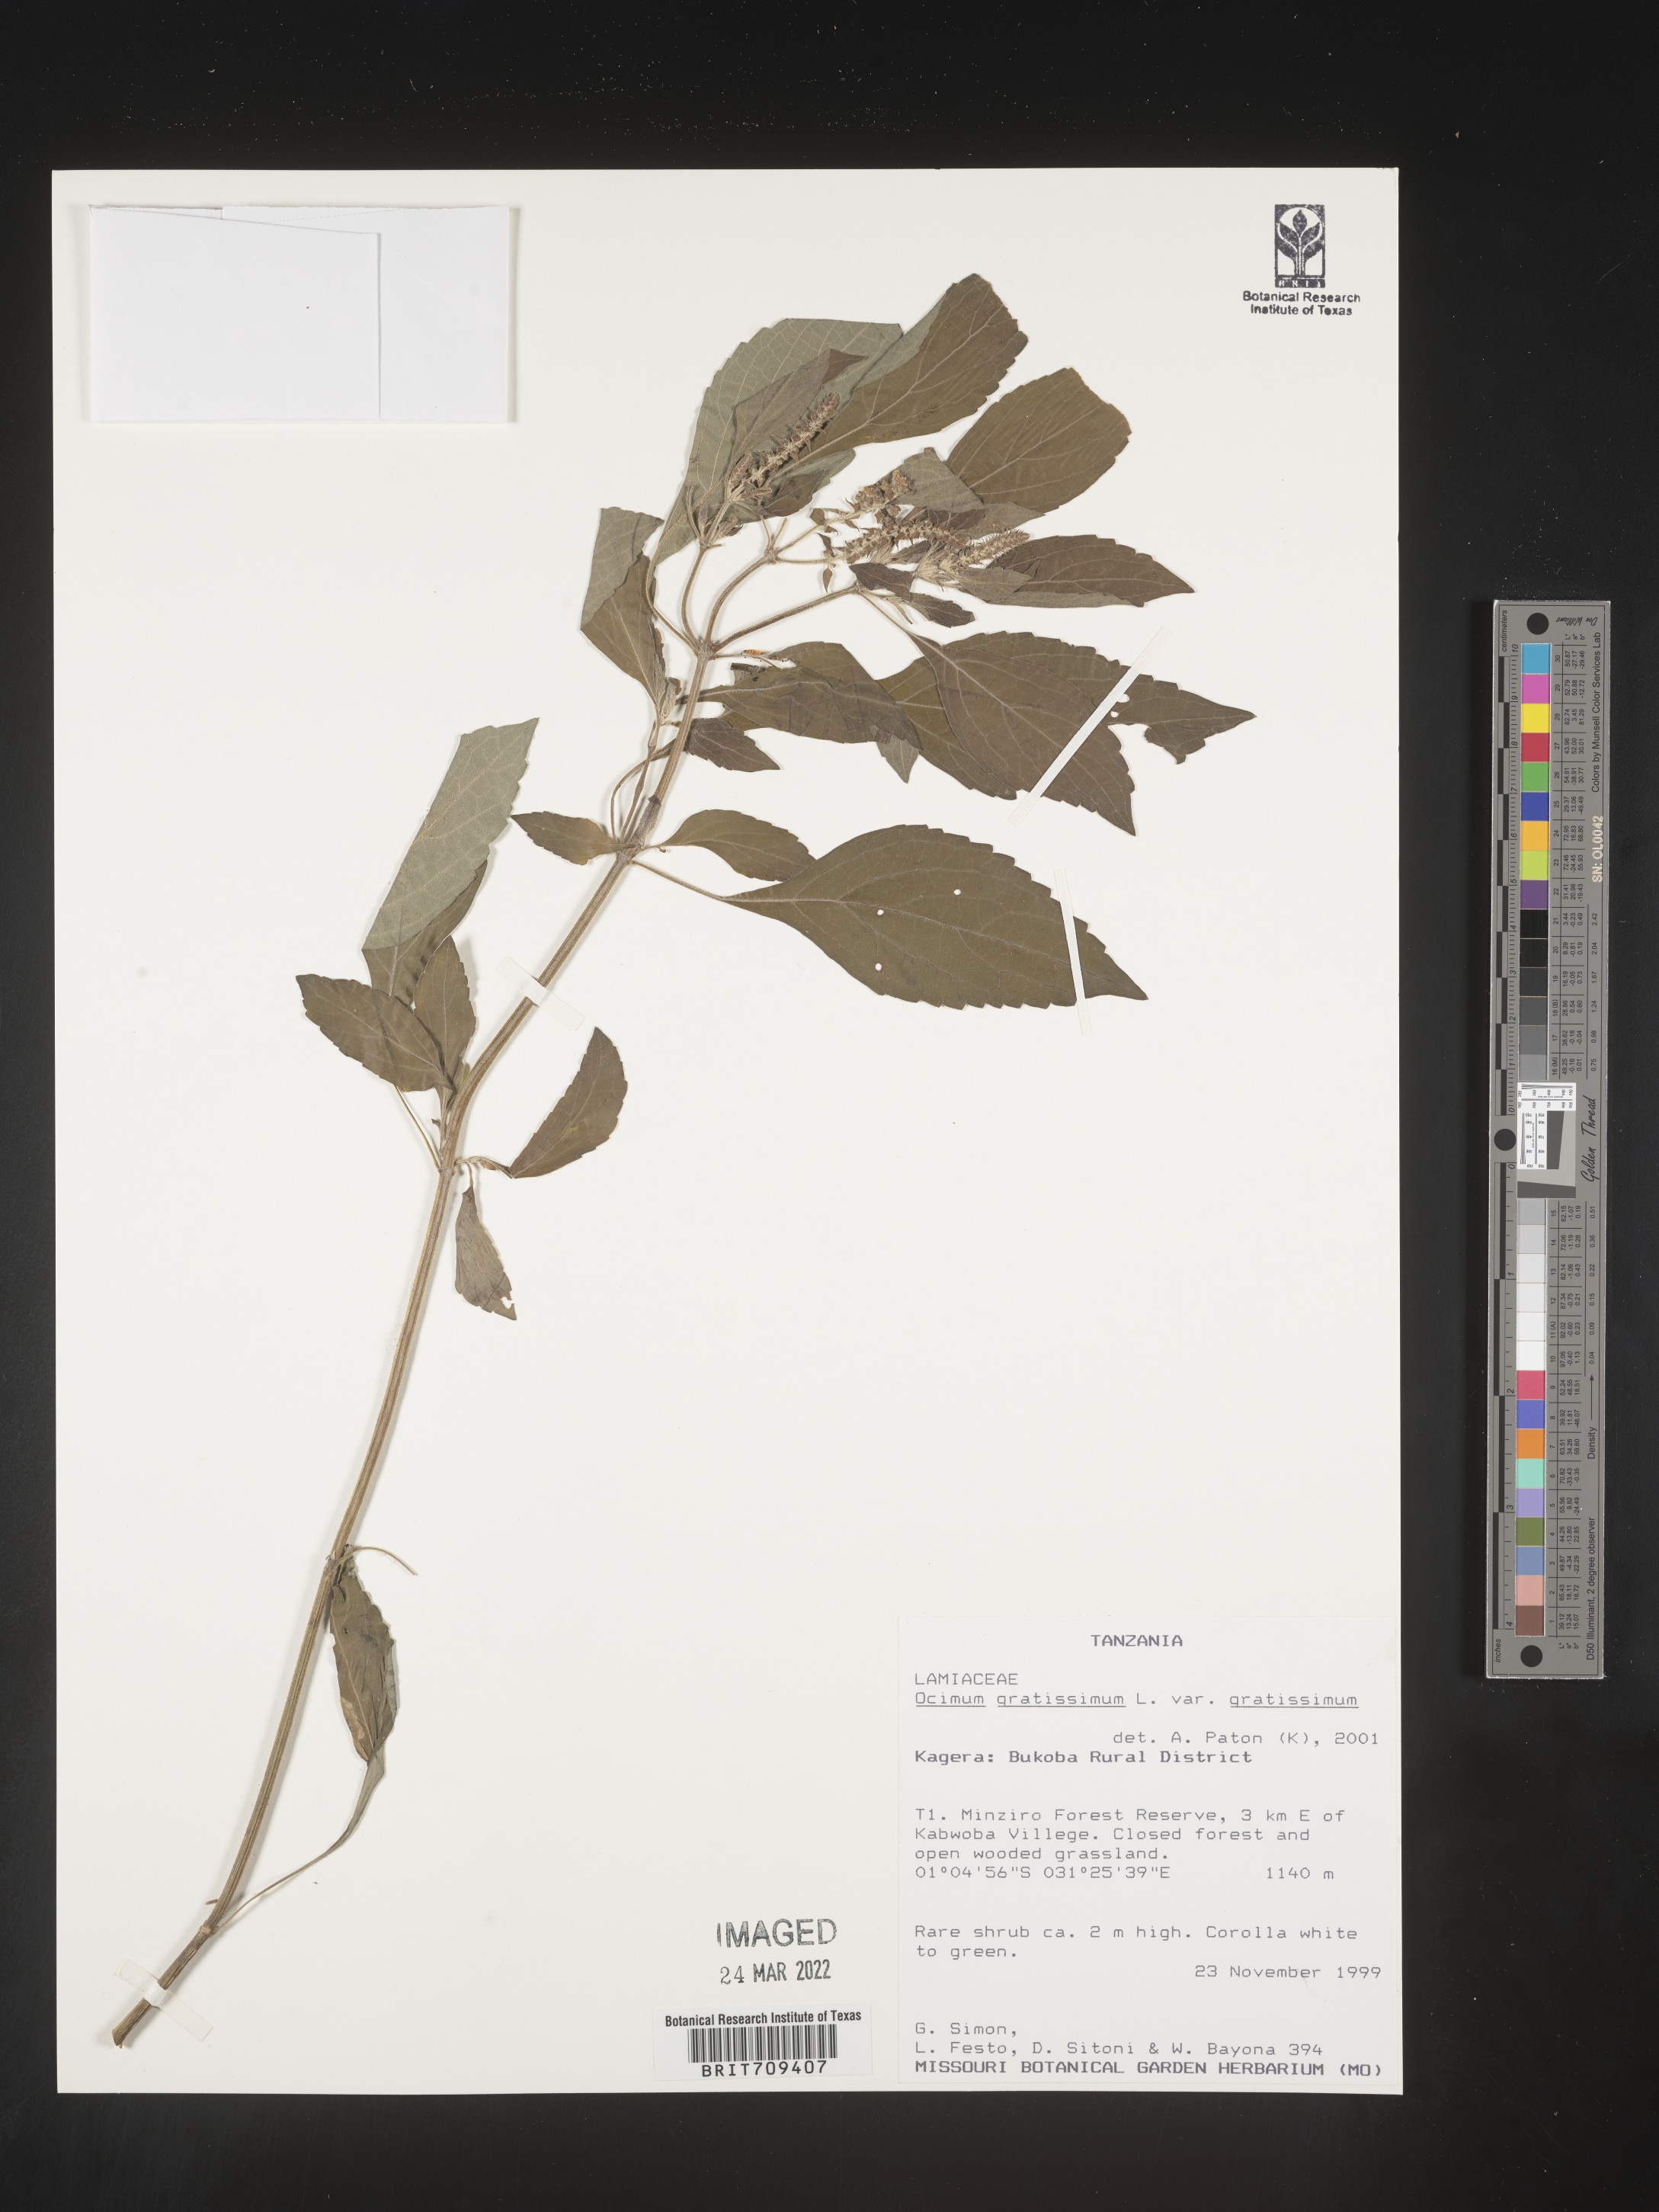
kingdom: Plantae
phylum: Tracheophyta
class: Magnoliopsida
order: Lamiales
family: Lamiaceae
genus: Ocimum
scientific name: Ocimum
